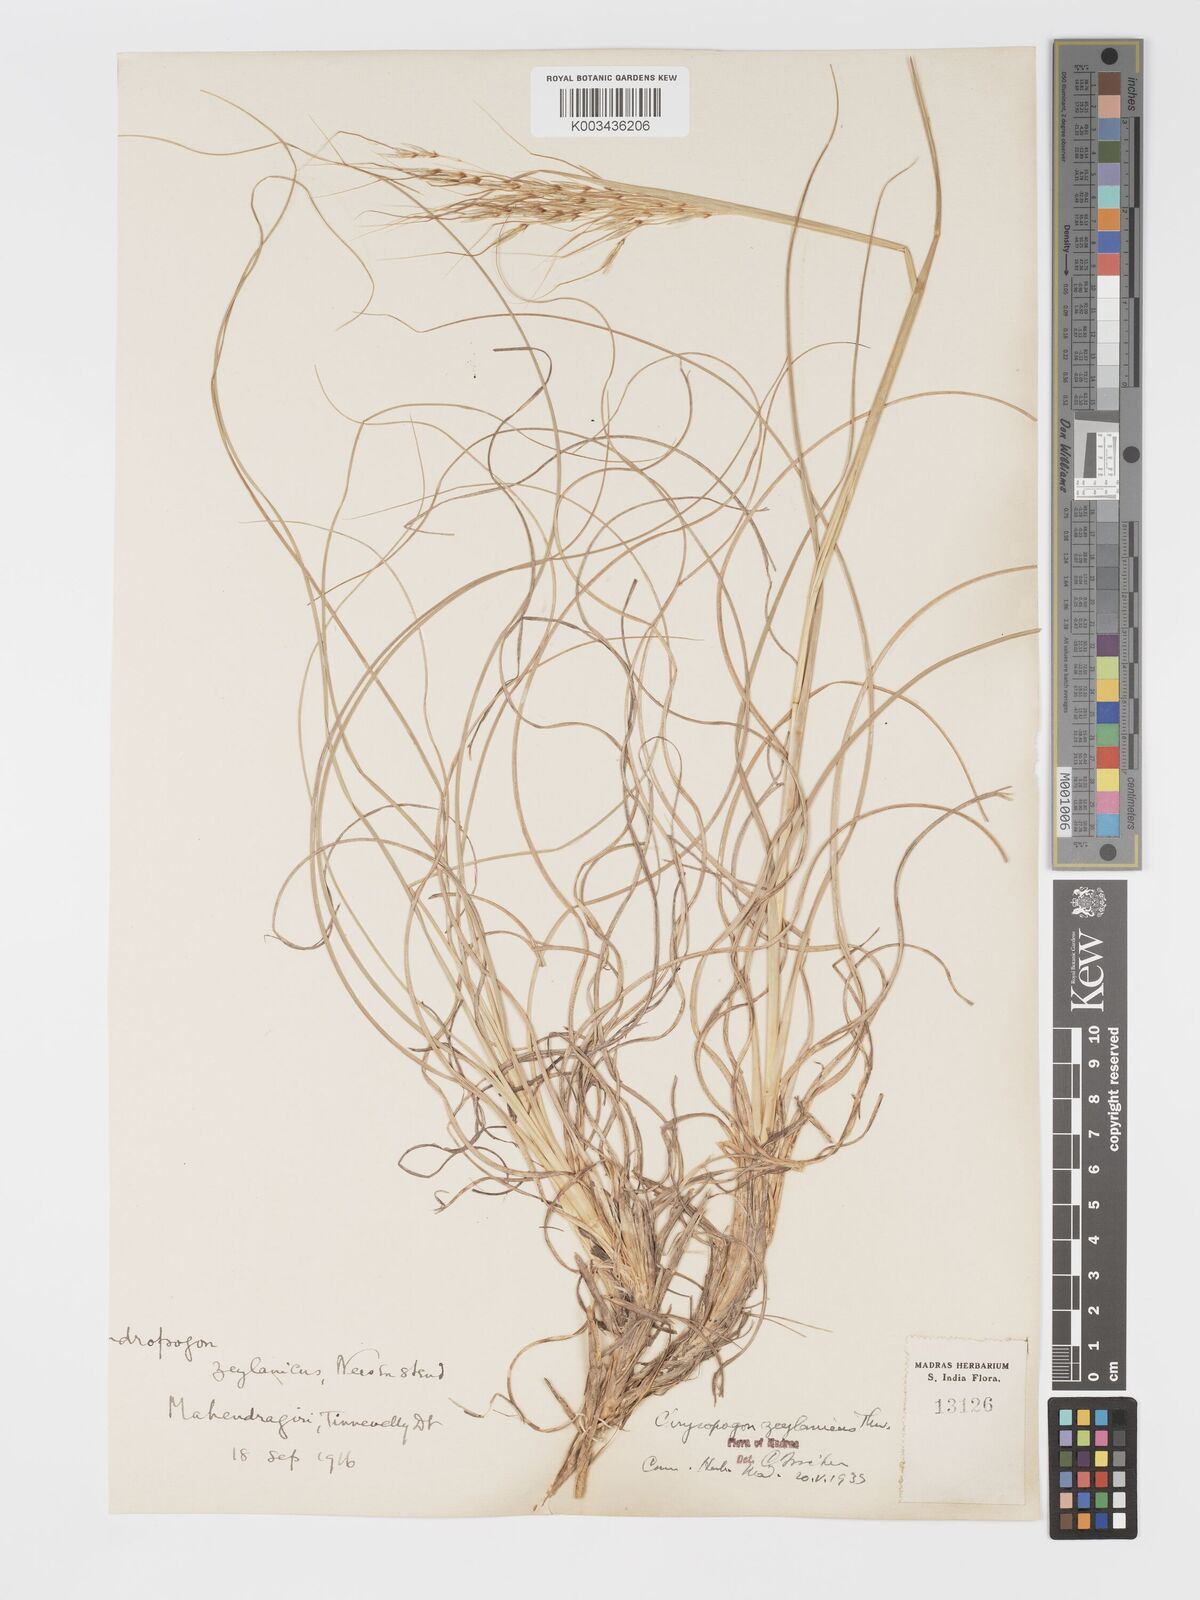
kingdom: Plantae
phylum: Tracheophyta
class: Liliopsida
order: Poales
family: Poaceae
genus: Chrysopogon
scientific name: Chrysopogon nodulibarbis
